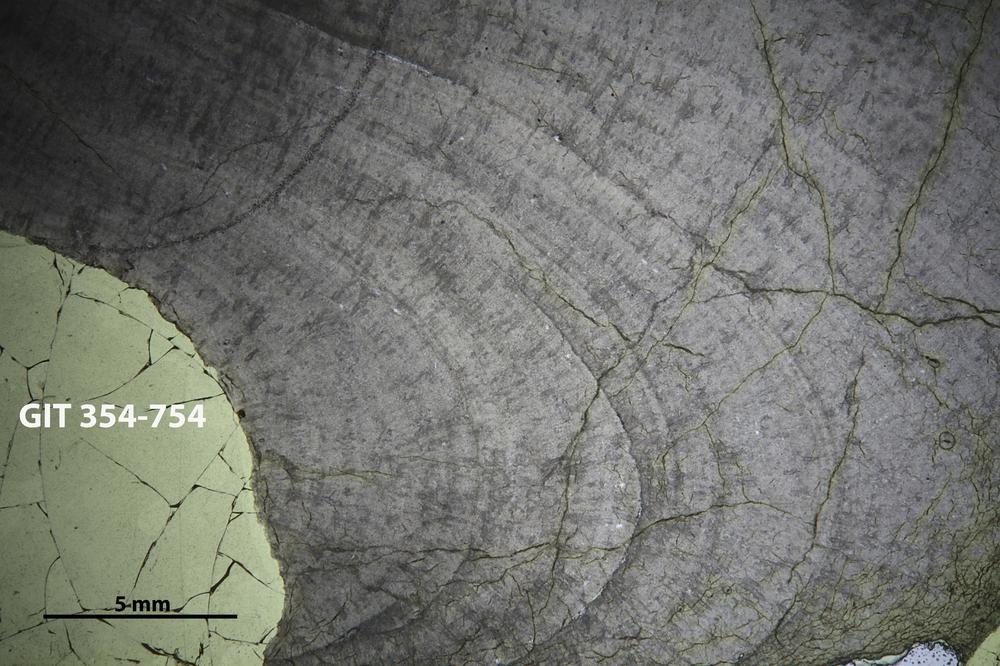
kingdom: Animalia
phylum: Porifera
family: Densastromatidae
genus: Densastroma
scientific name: Densastroma
